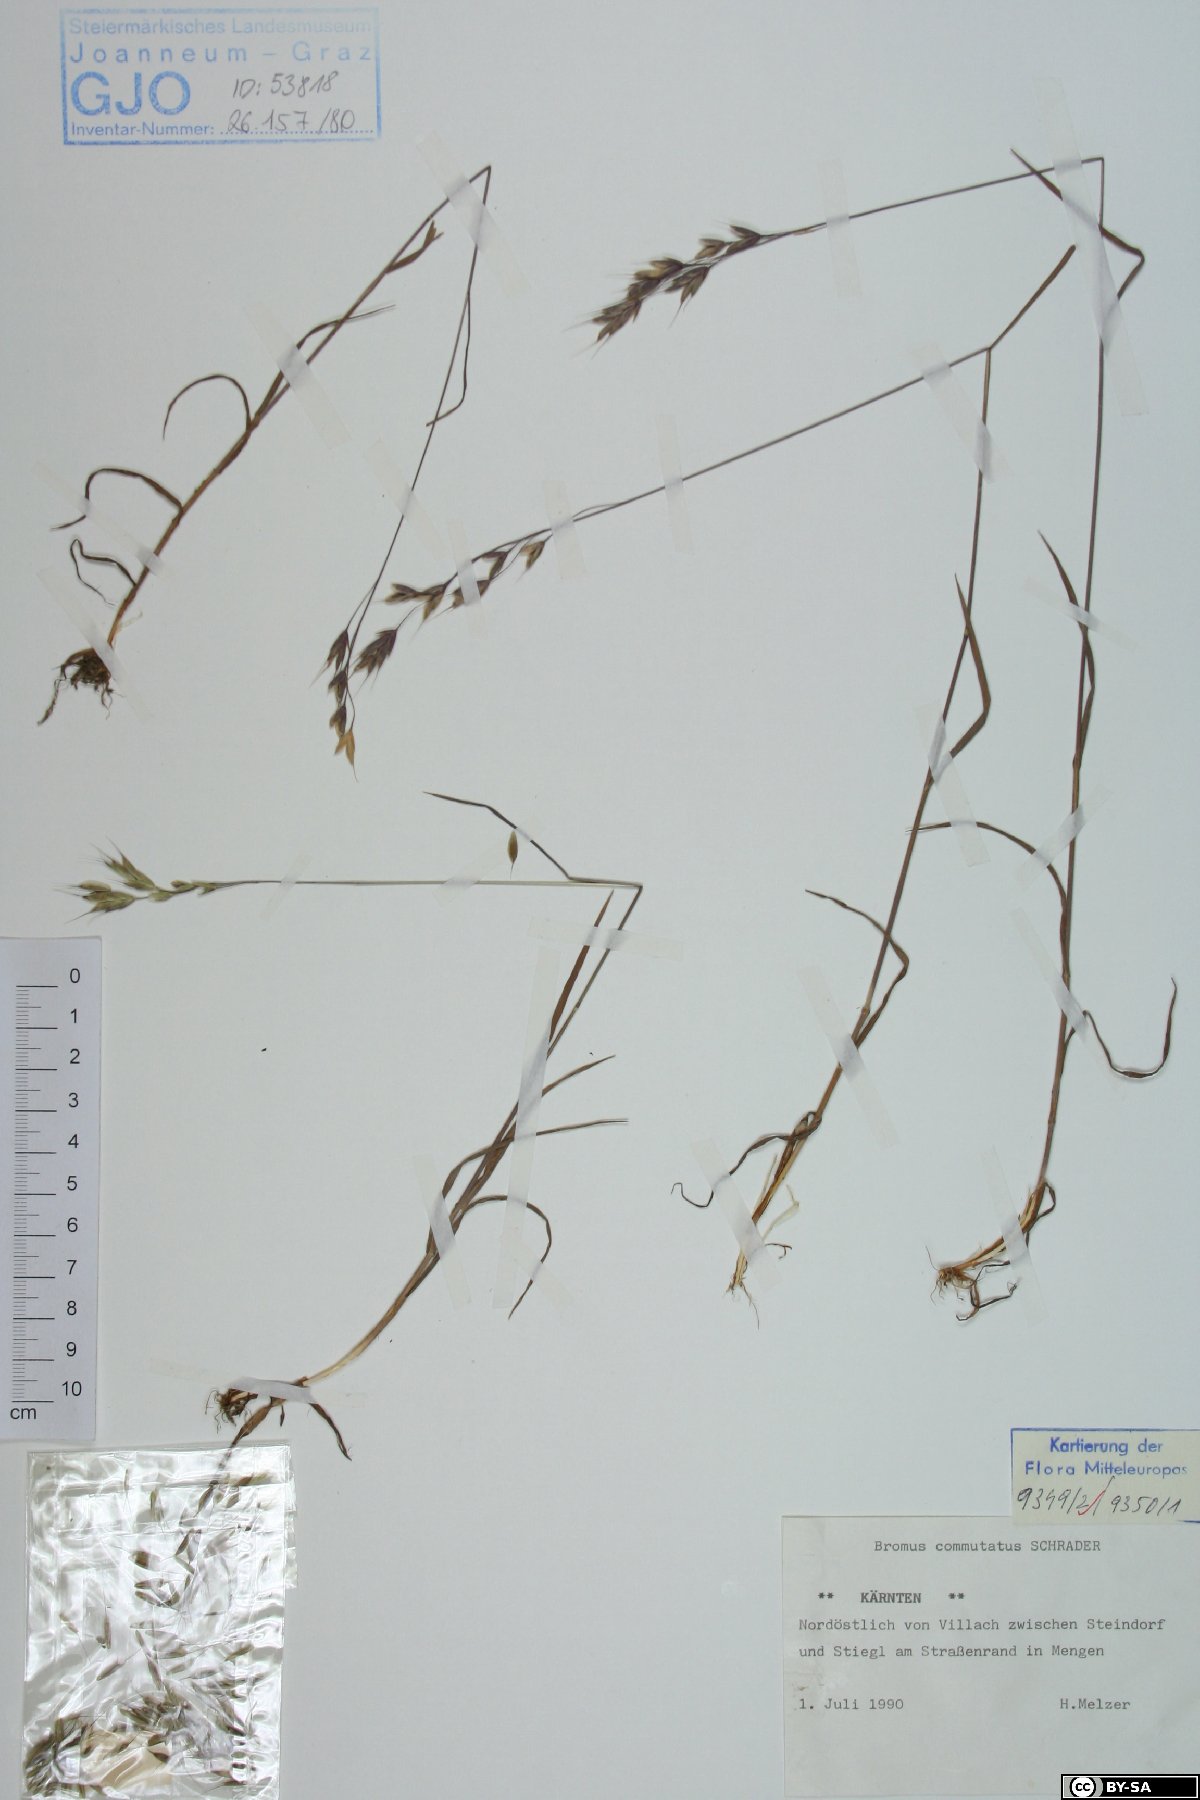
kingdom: Plantae
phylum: Tracheophyta
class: Liliopsida
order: Poales
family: Poaceae
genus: Bromus
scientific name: Bromus commutatus
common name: Meadow brome
